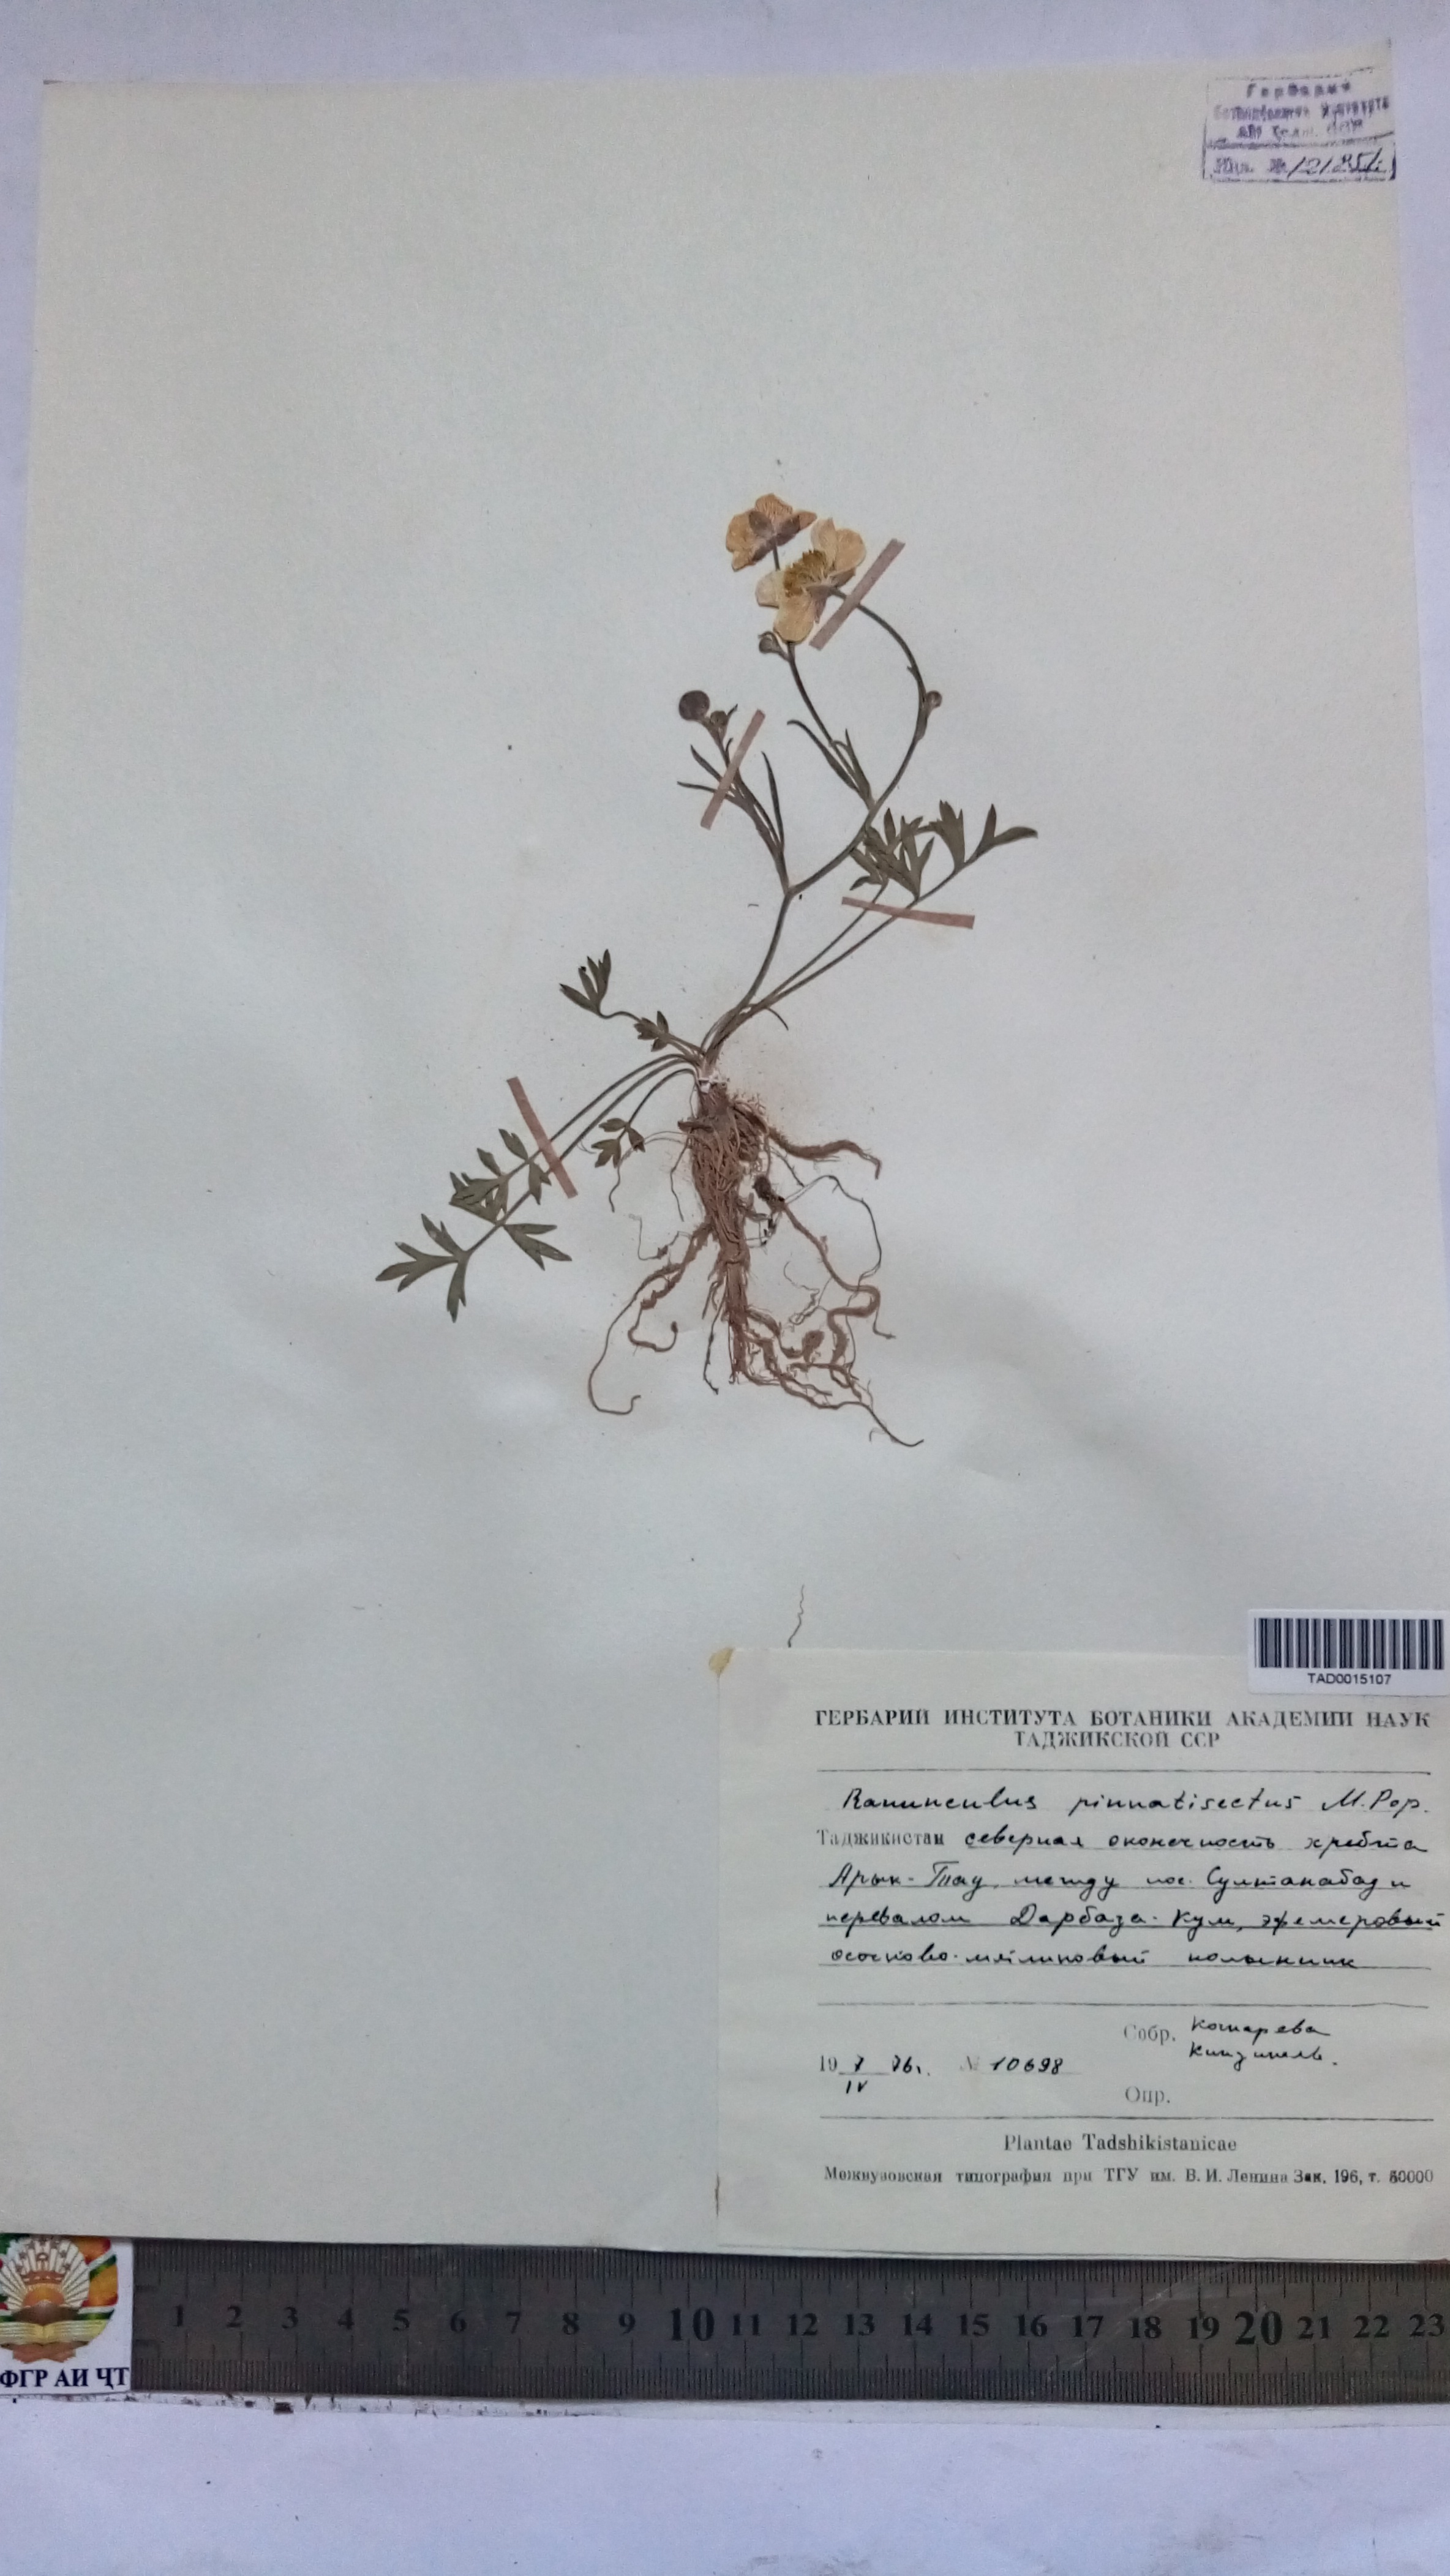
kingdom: Plantae
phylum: Tracheophyta
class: Magnoliopsida
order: Ranunculales
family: Ranunculaceae
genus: Ranunculus
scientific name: Ranunculus pinnatisectus
